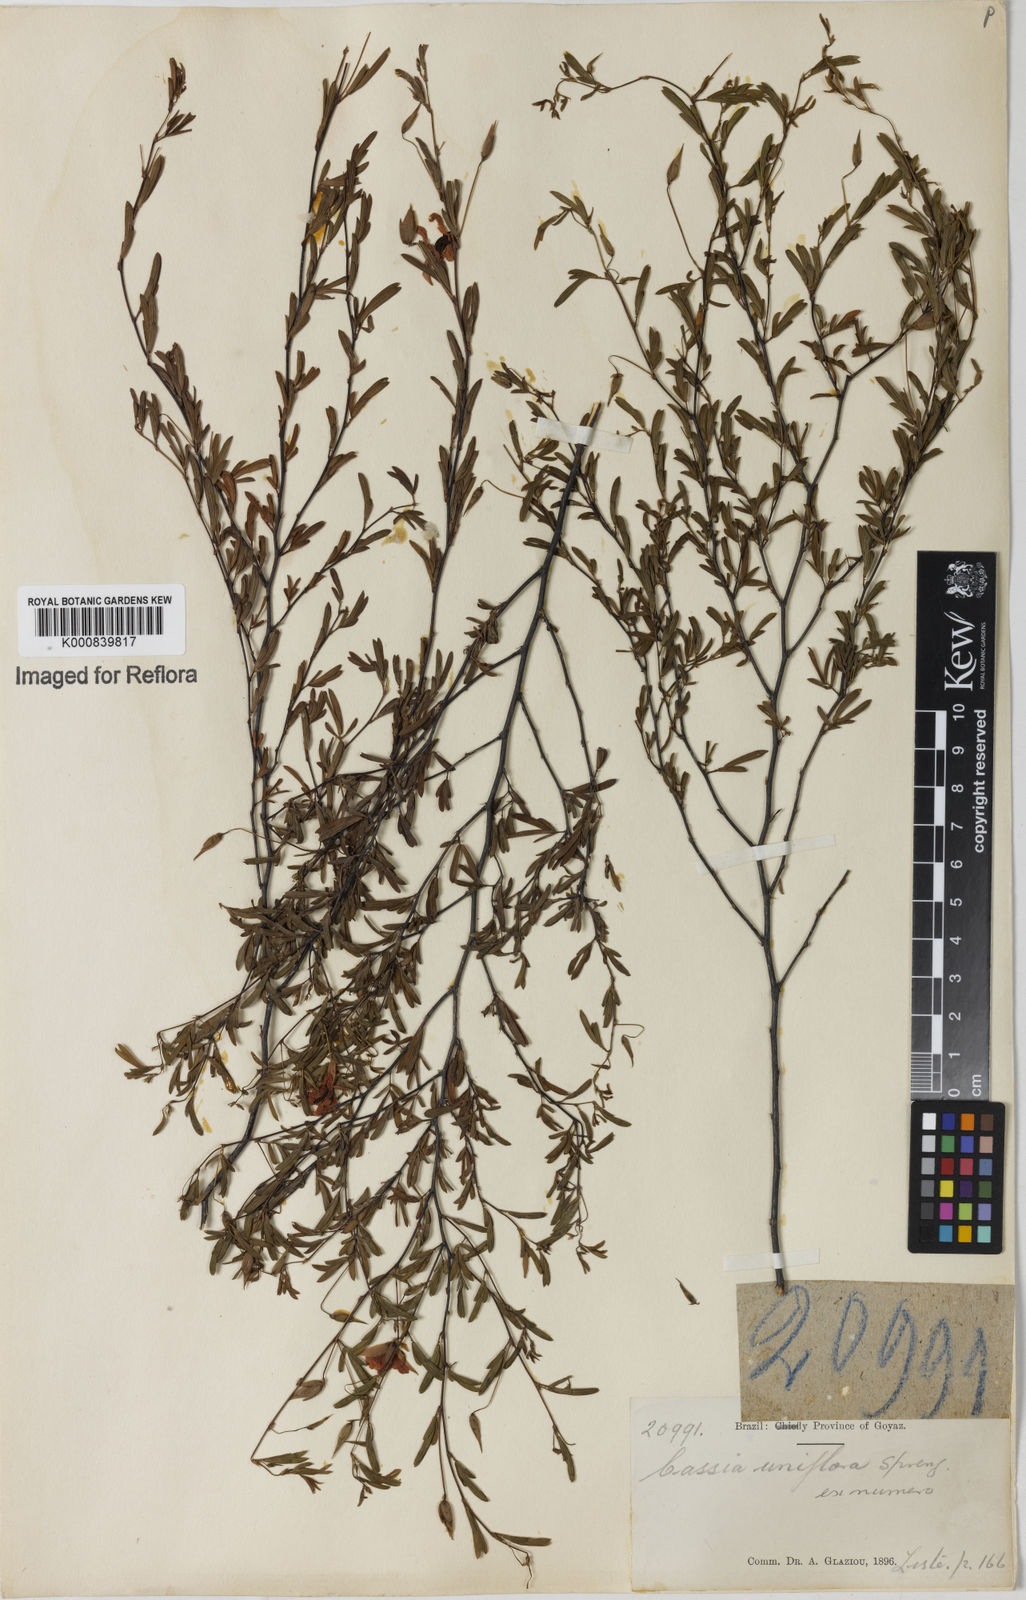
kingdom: Plantae
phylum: Tracheophyta
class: Magnoliopsida
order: Fabales
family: Fabaceae
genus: Chamaecrista
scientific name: Chamaecrista ramosa
